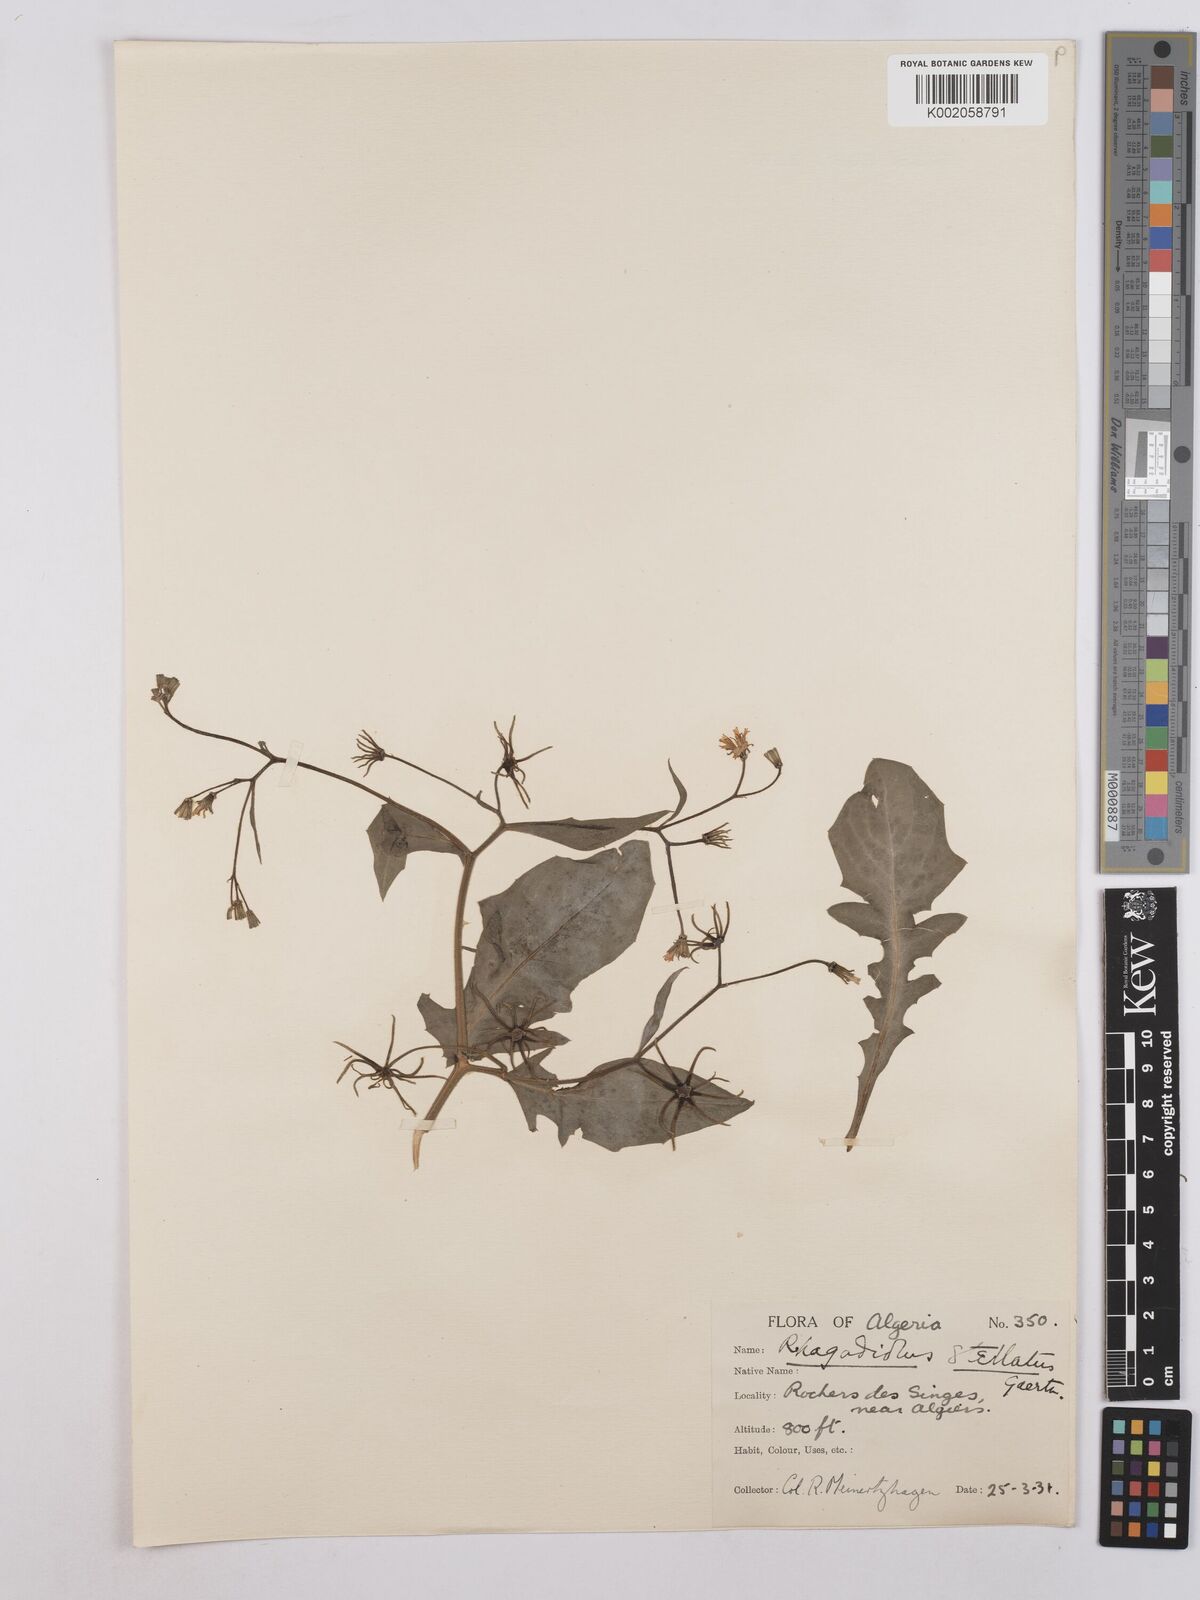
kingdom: Plantae
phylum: Tracheophyta
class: Magnoliopsida
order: Asterales
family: Asteraceae
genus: Rhagadiolus
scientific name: Rhagadiolus stellatus
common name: Star hawkbit
